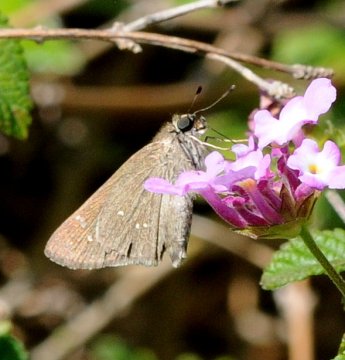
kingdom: Animalia
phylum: Arthropoda
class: Insecta
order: Lepidoptera
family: Hesperiidae
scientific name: Hesperiidae
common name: Skippers
